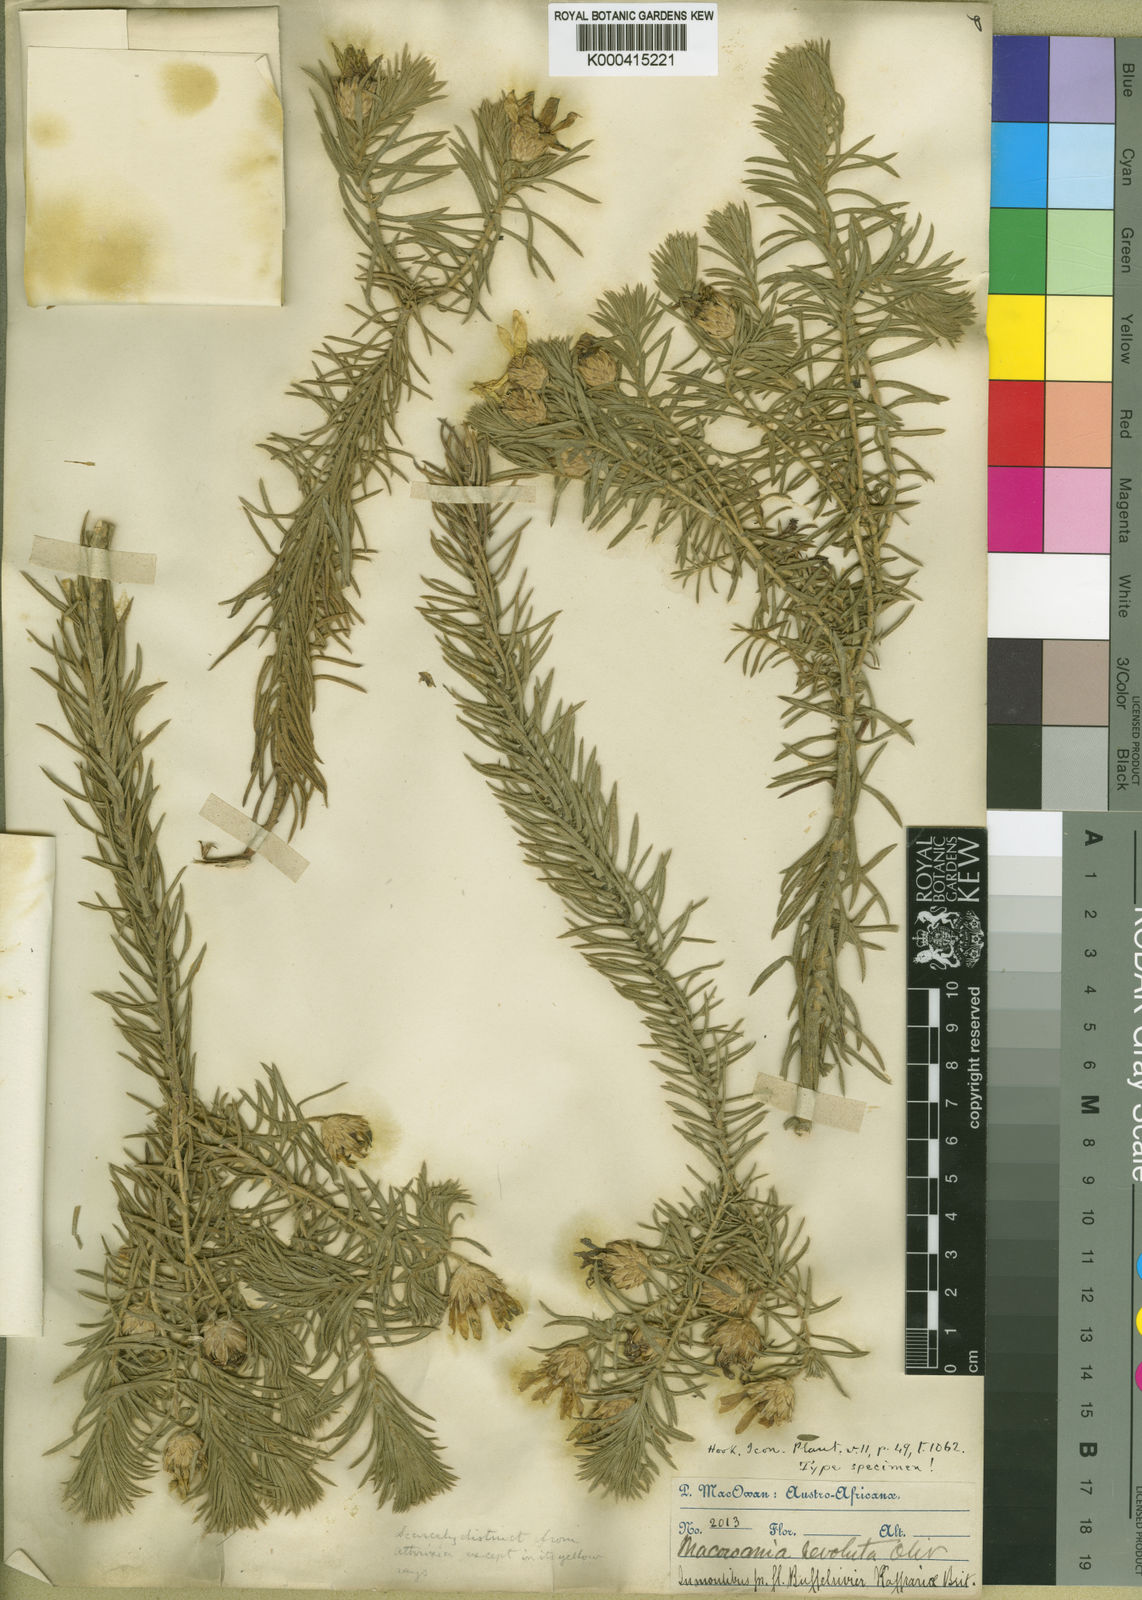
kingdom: Plantae
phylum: Tracheophyta
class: Magnoliopsida
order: Asterales
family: Asteraceae
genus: Arrowsmithia
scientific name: Arrowsmithia revoluta
